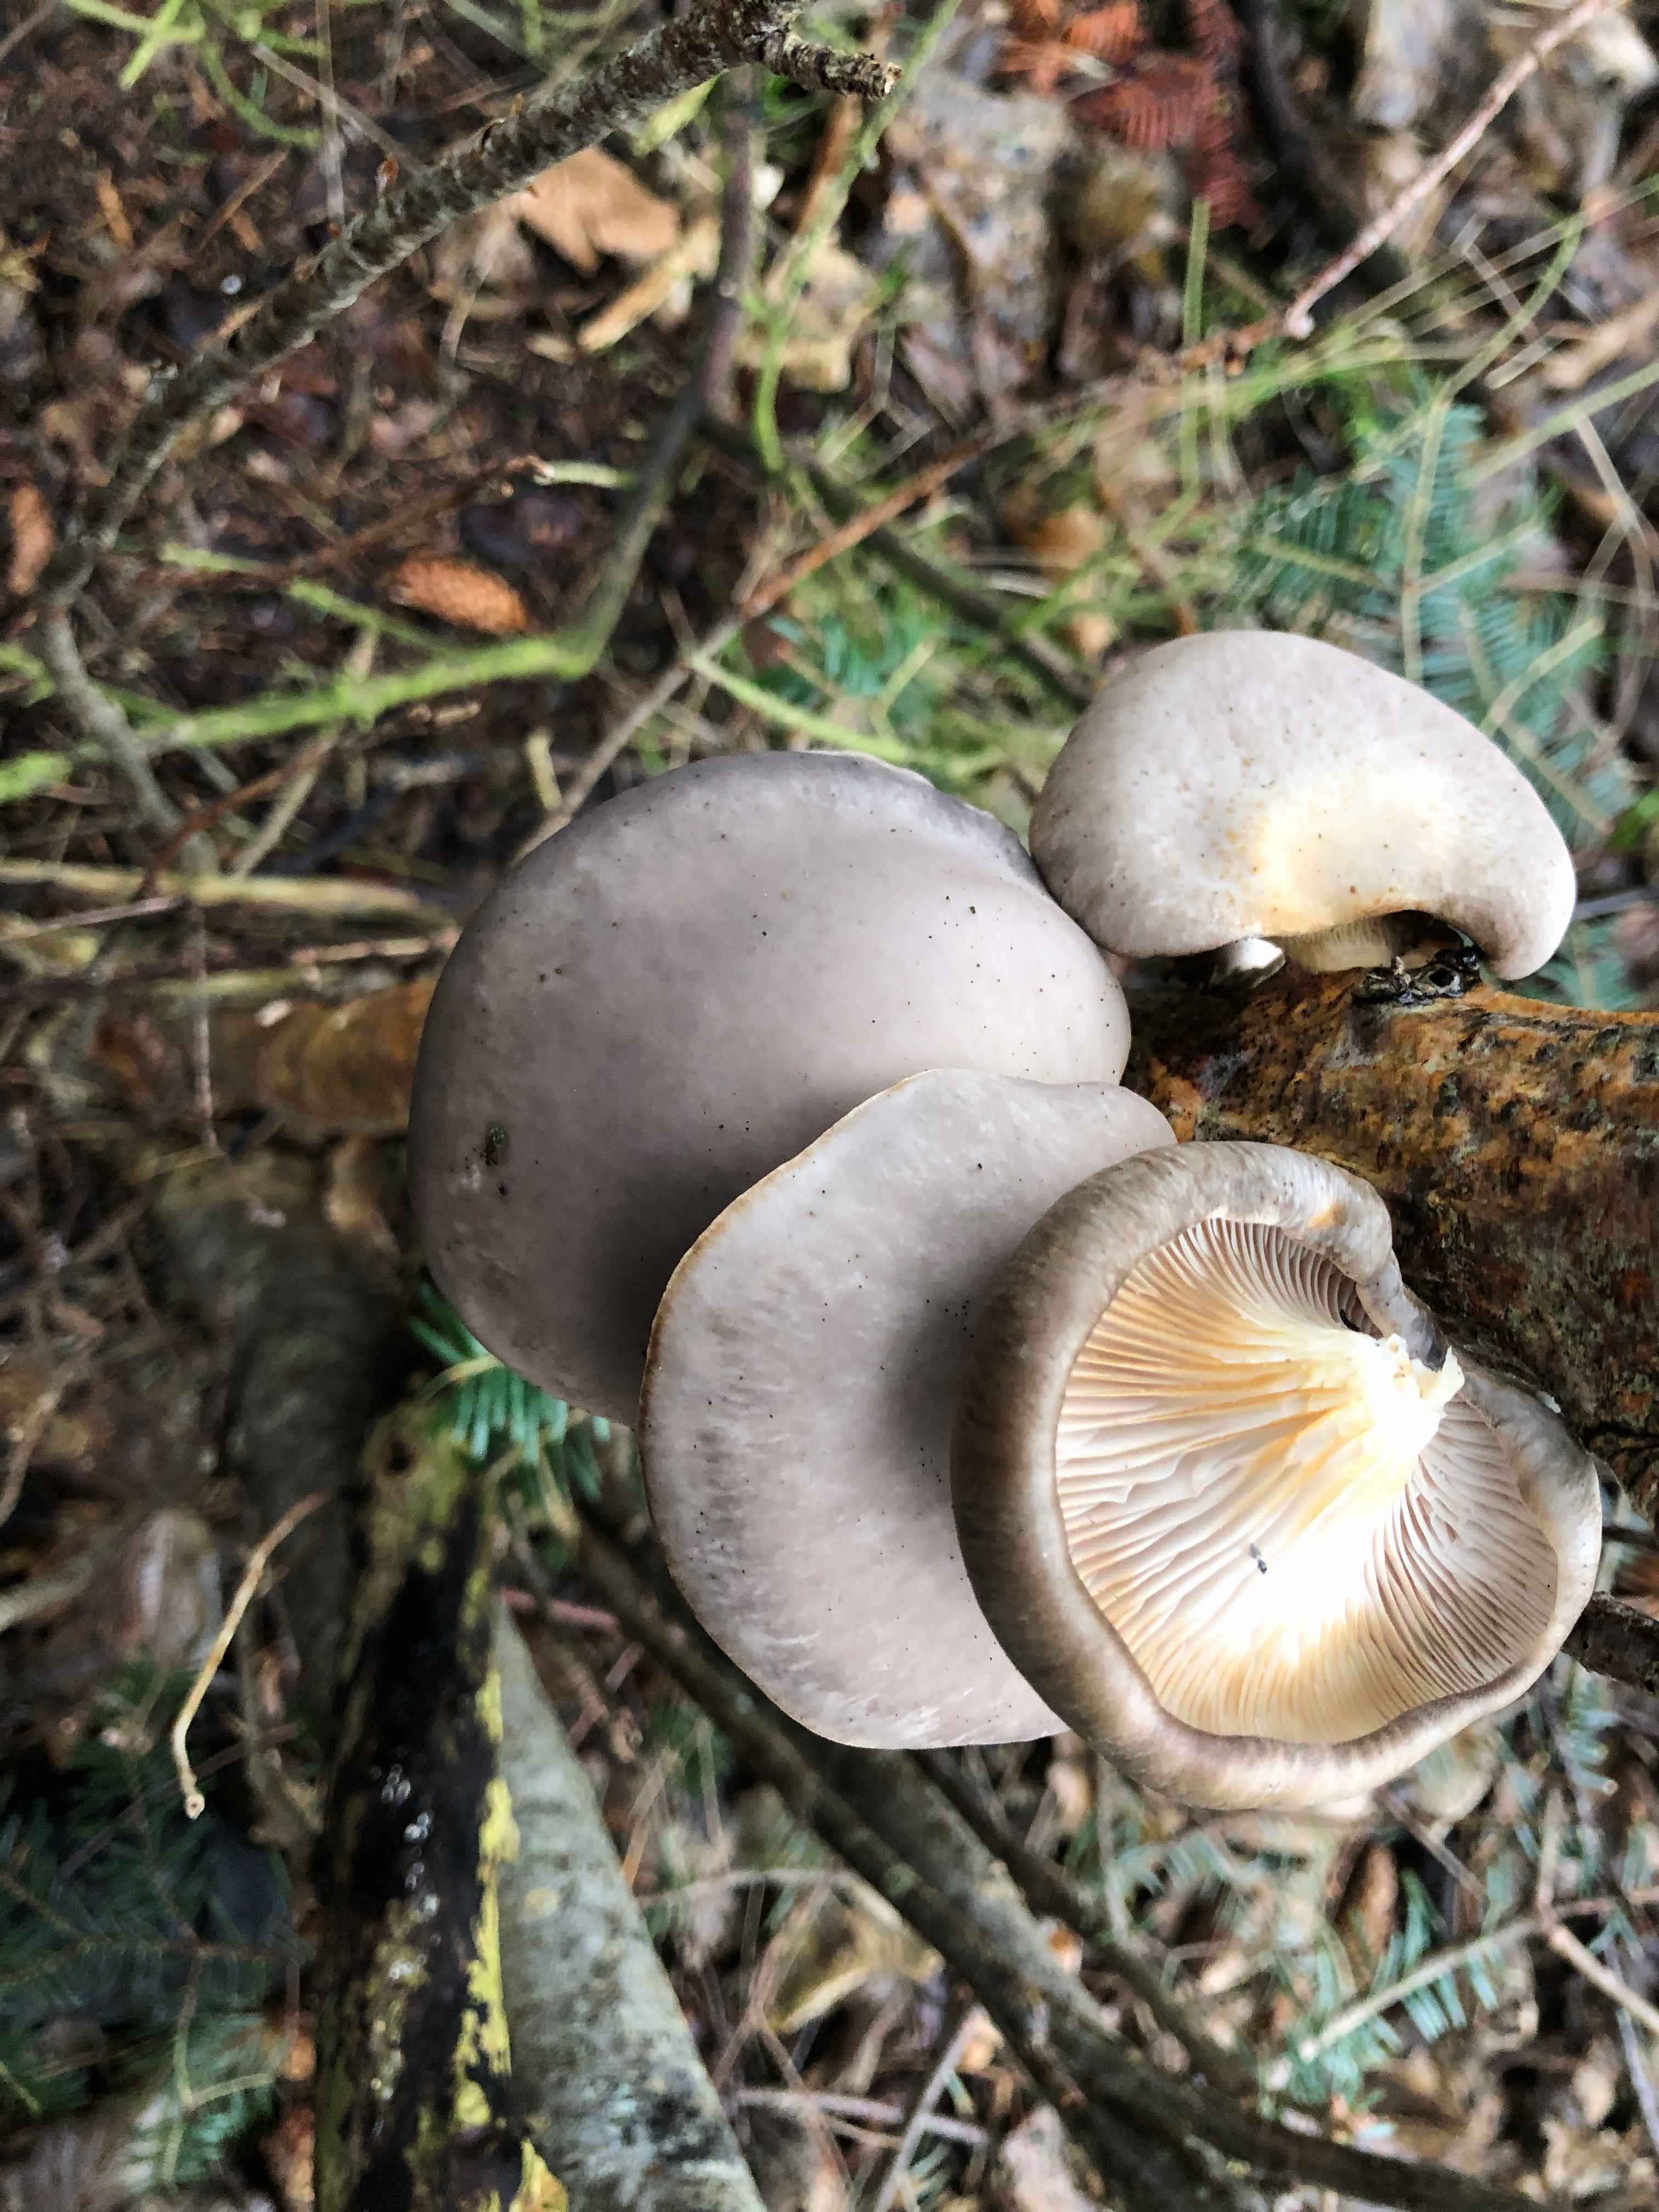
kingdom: Fungi
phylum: Basidiomycota
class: Agaricomycetes
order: Agaricales
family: Pleurotaceae
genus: Pleurotus
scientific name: Pleurotus ostreatus
